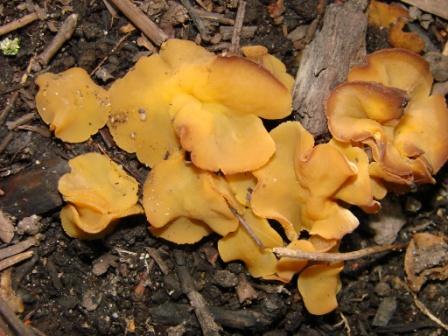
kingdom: Fungi
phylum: Ascomycota
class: Pezizomycetes
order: Pezizales
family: Pezizaceae
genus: Peziza
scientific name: Peziza aurata
